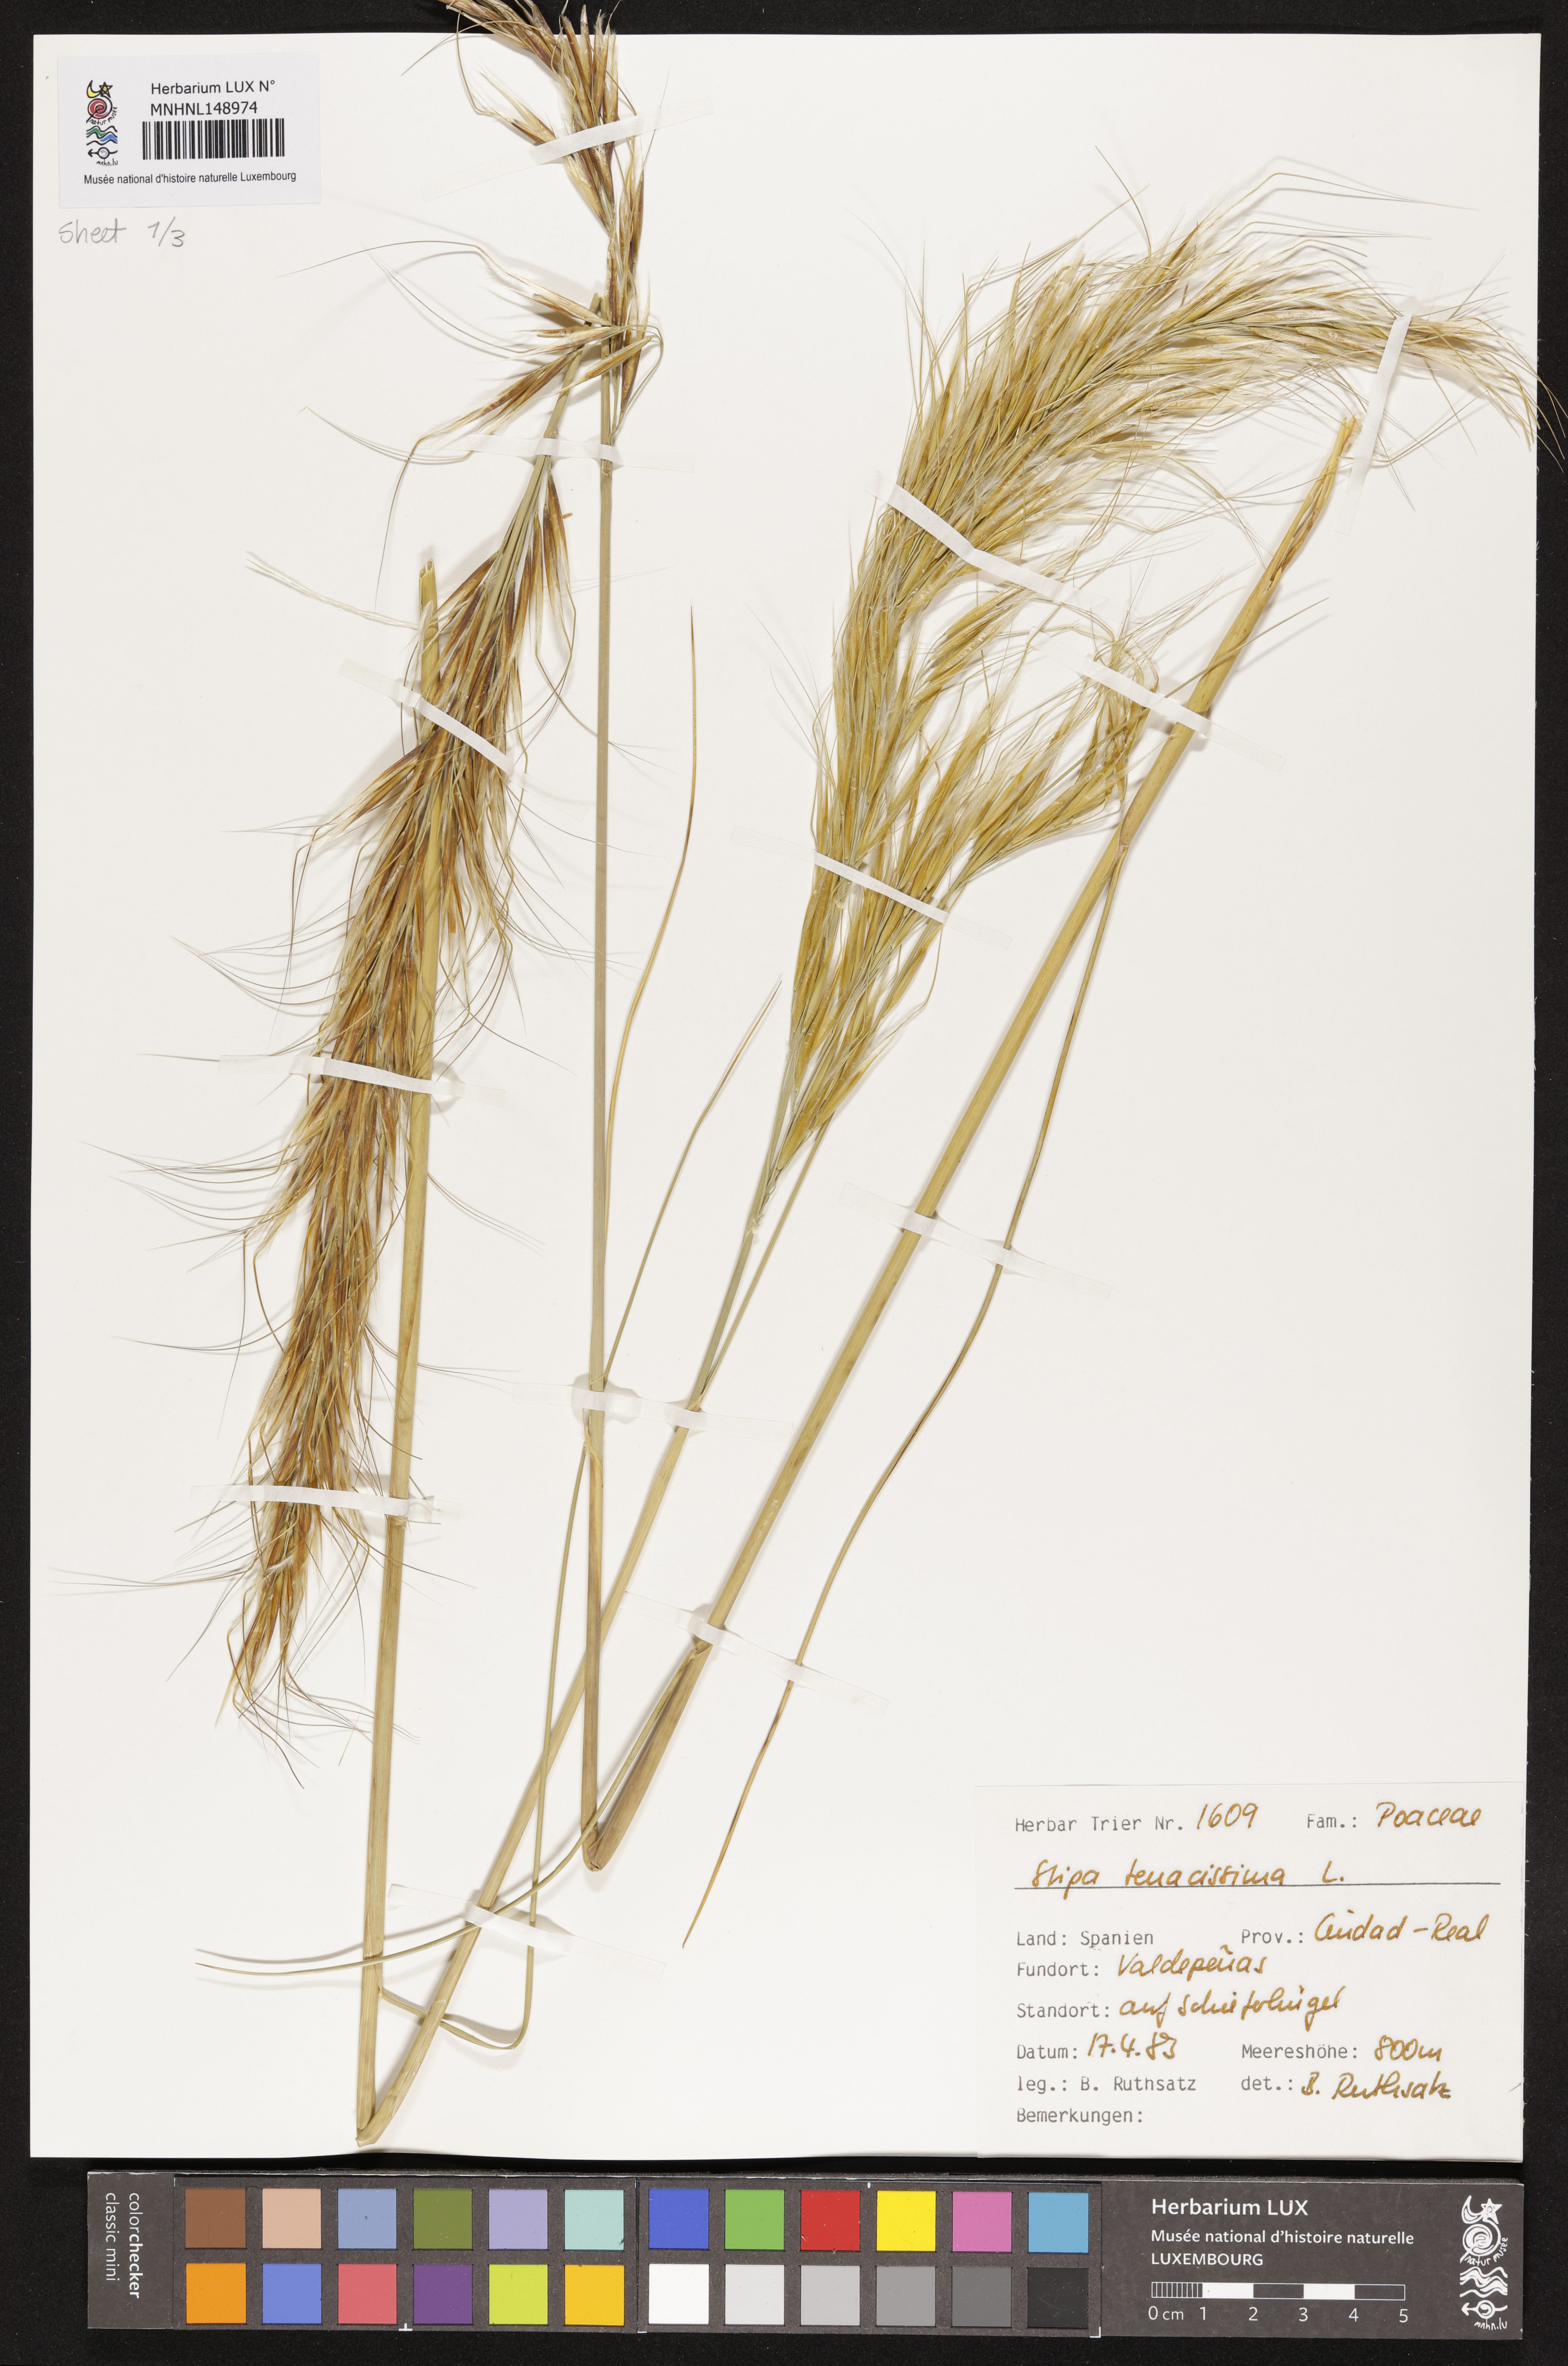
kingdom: Plantae
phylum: Tracheophyta
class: Liliopsida
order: Poales
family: Poaceae
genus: Macrochloa
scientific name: Macrochloa tenacissima
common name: Alfa grass
